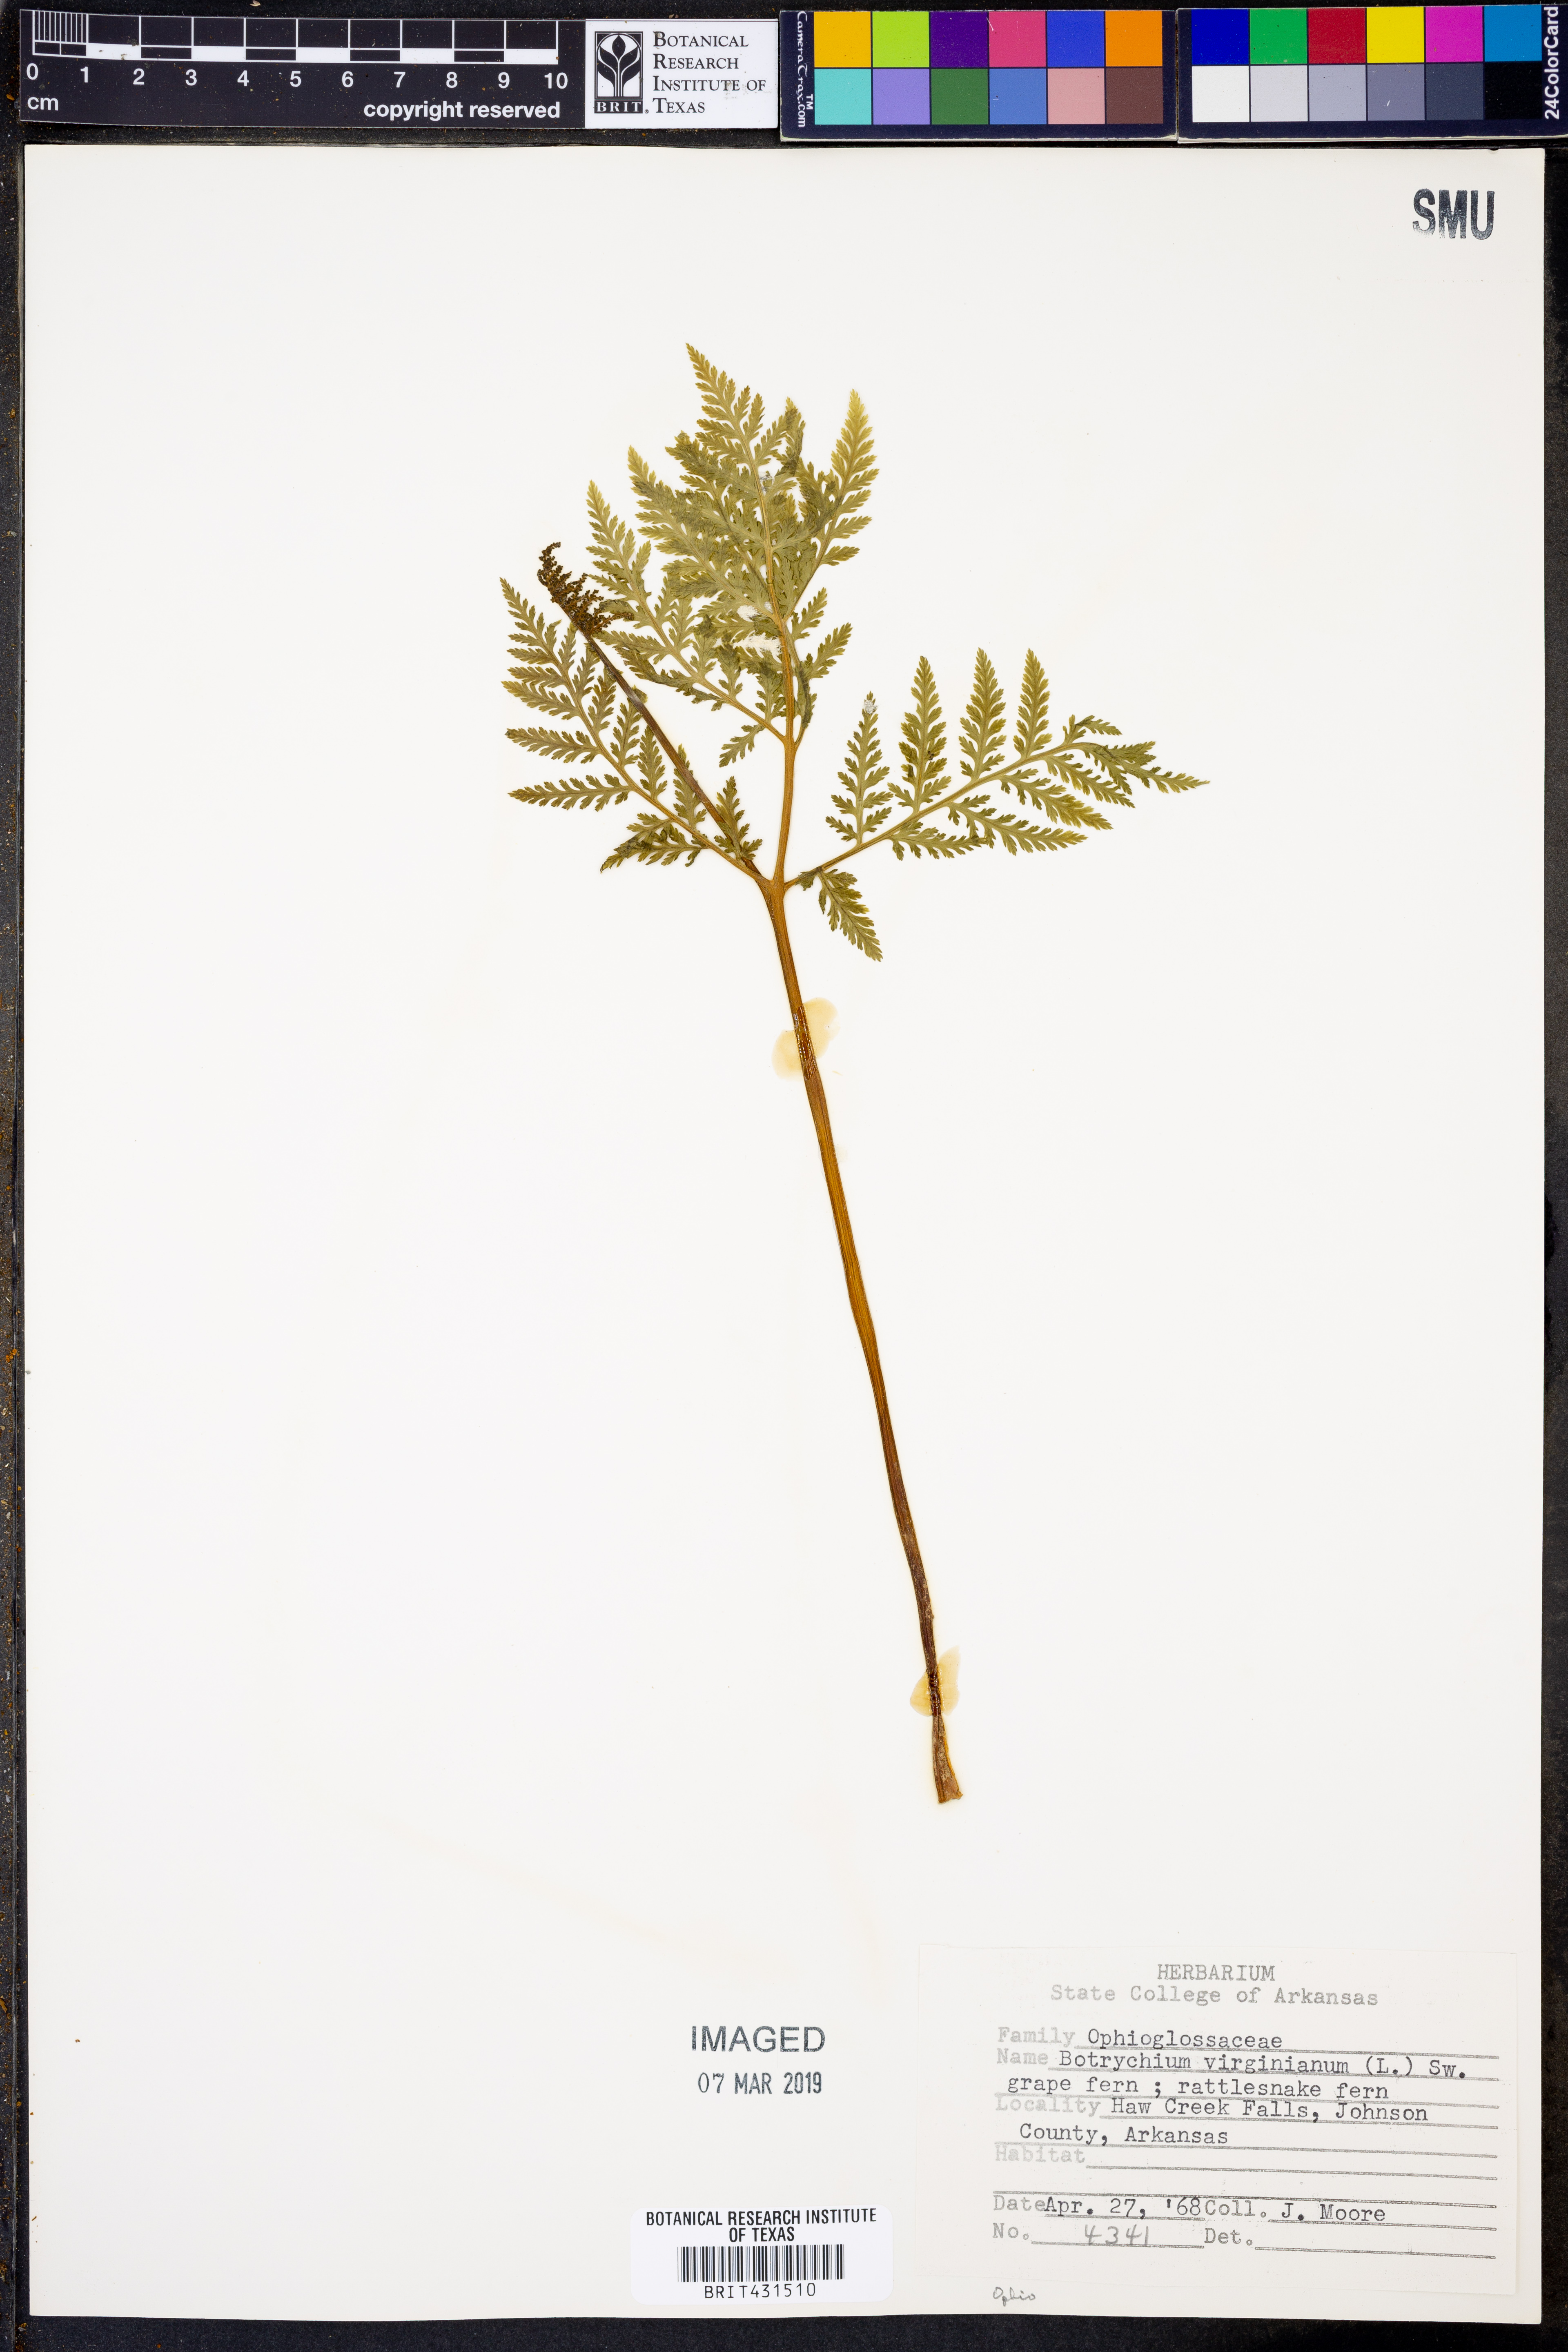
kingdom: Plantae
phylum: Tracheophyta
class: Polypodiopsida
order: Ophioglossales
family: Ophioglossaceae
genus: Botrypus
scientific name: Botrypus virginianus
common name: Common grapefern
